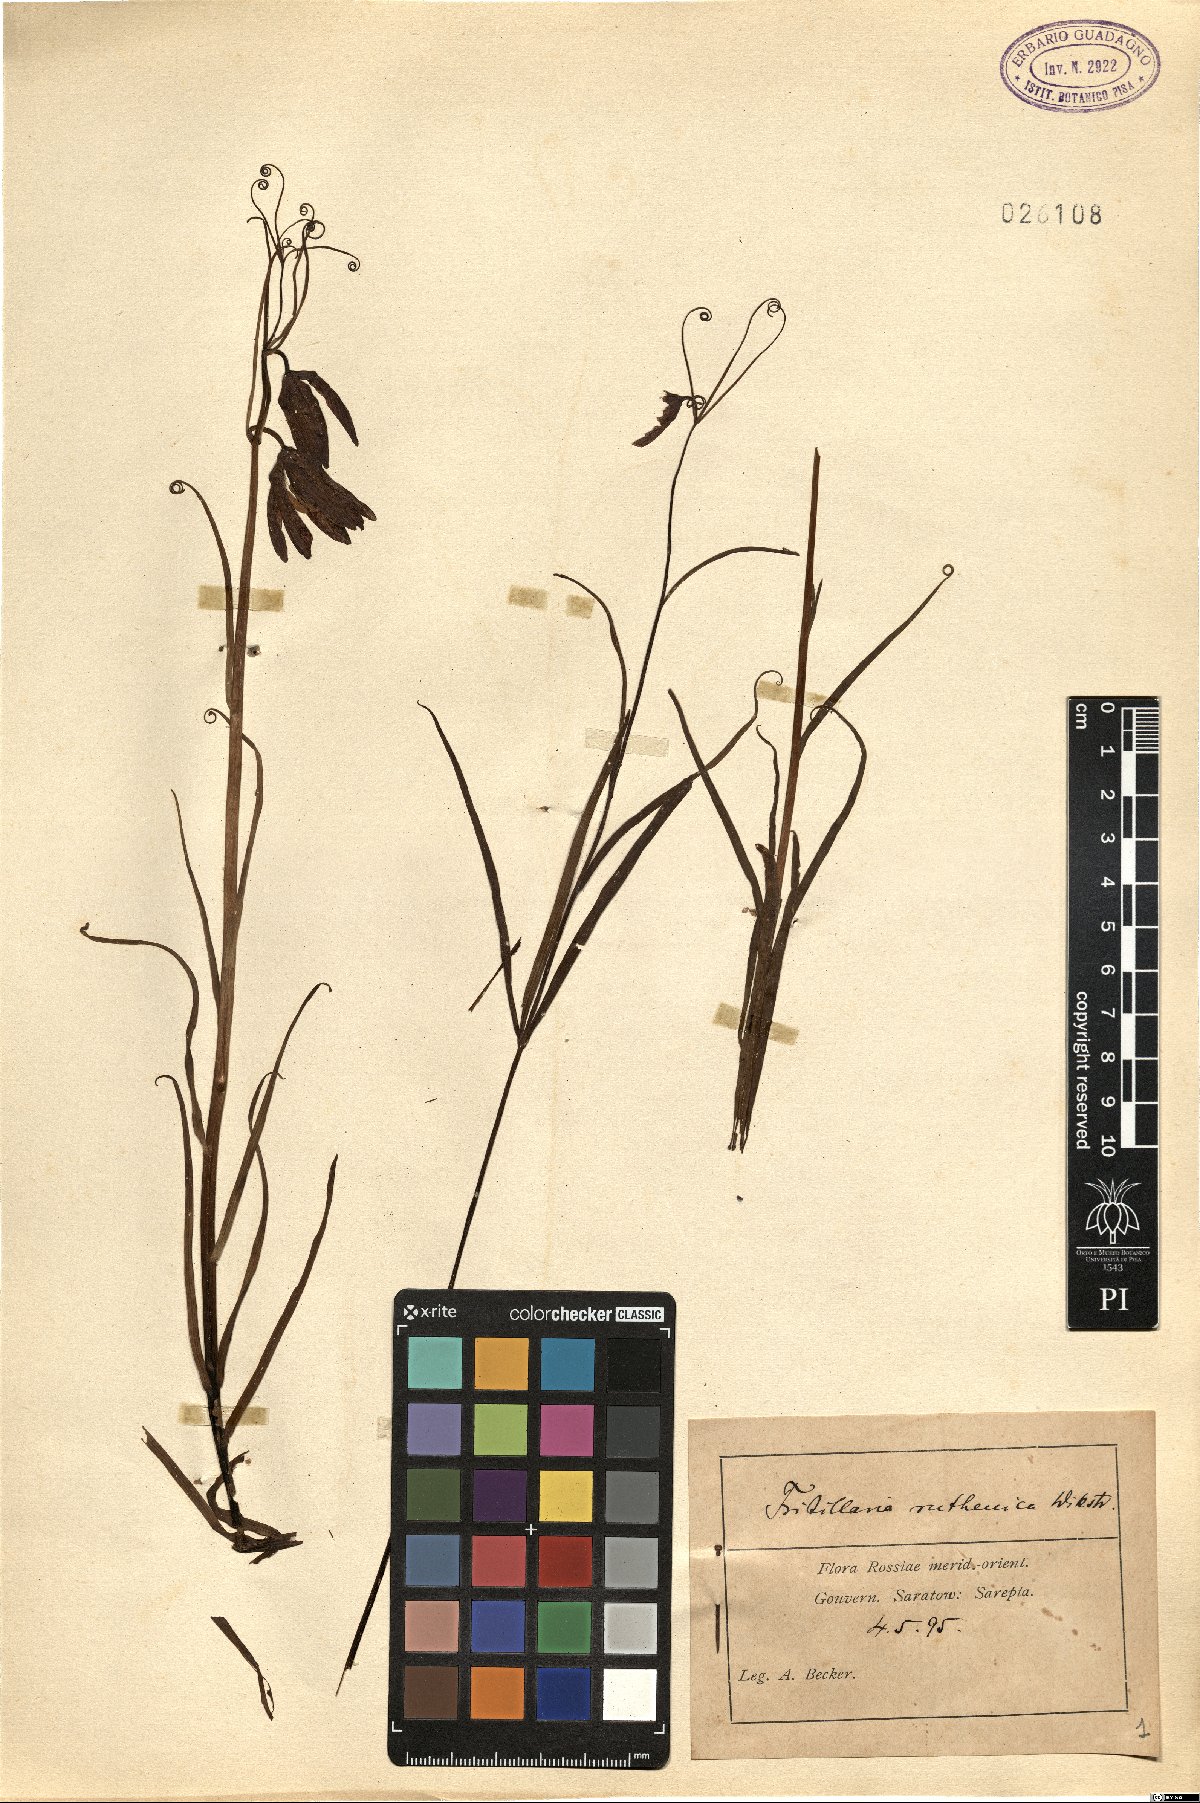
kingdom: Plantae
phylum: Tracheophyta
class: Liliopsida
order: Liliales
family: Liliaceae
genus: Fritillaria
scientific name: Fritillaria ruthenica
